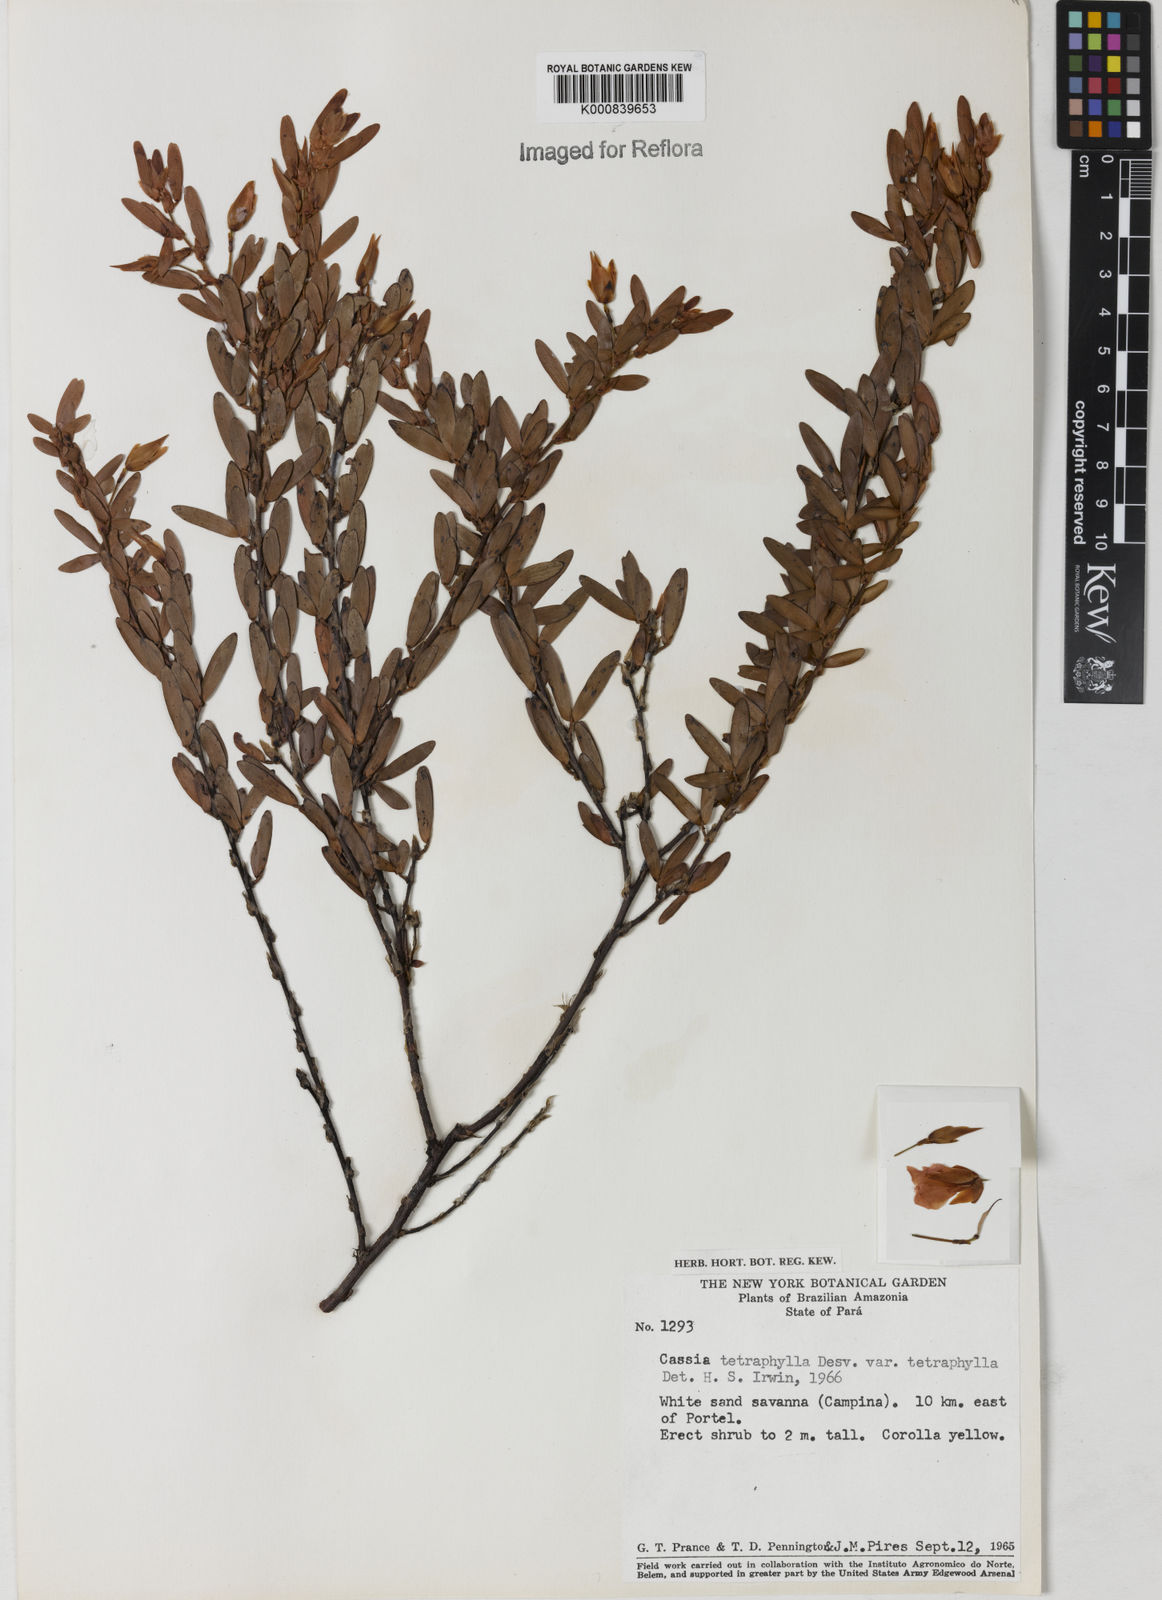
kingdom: Plantae
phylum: Tracheophyta
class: Magnoliopsida
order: Fabales
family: Fabaceae
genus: Chamaecrista
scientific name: Chamaecrista desvauxii
